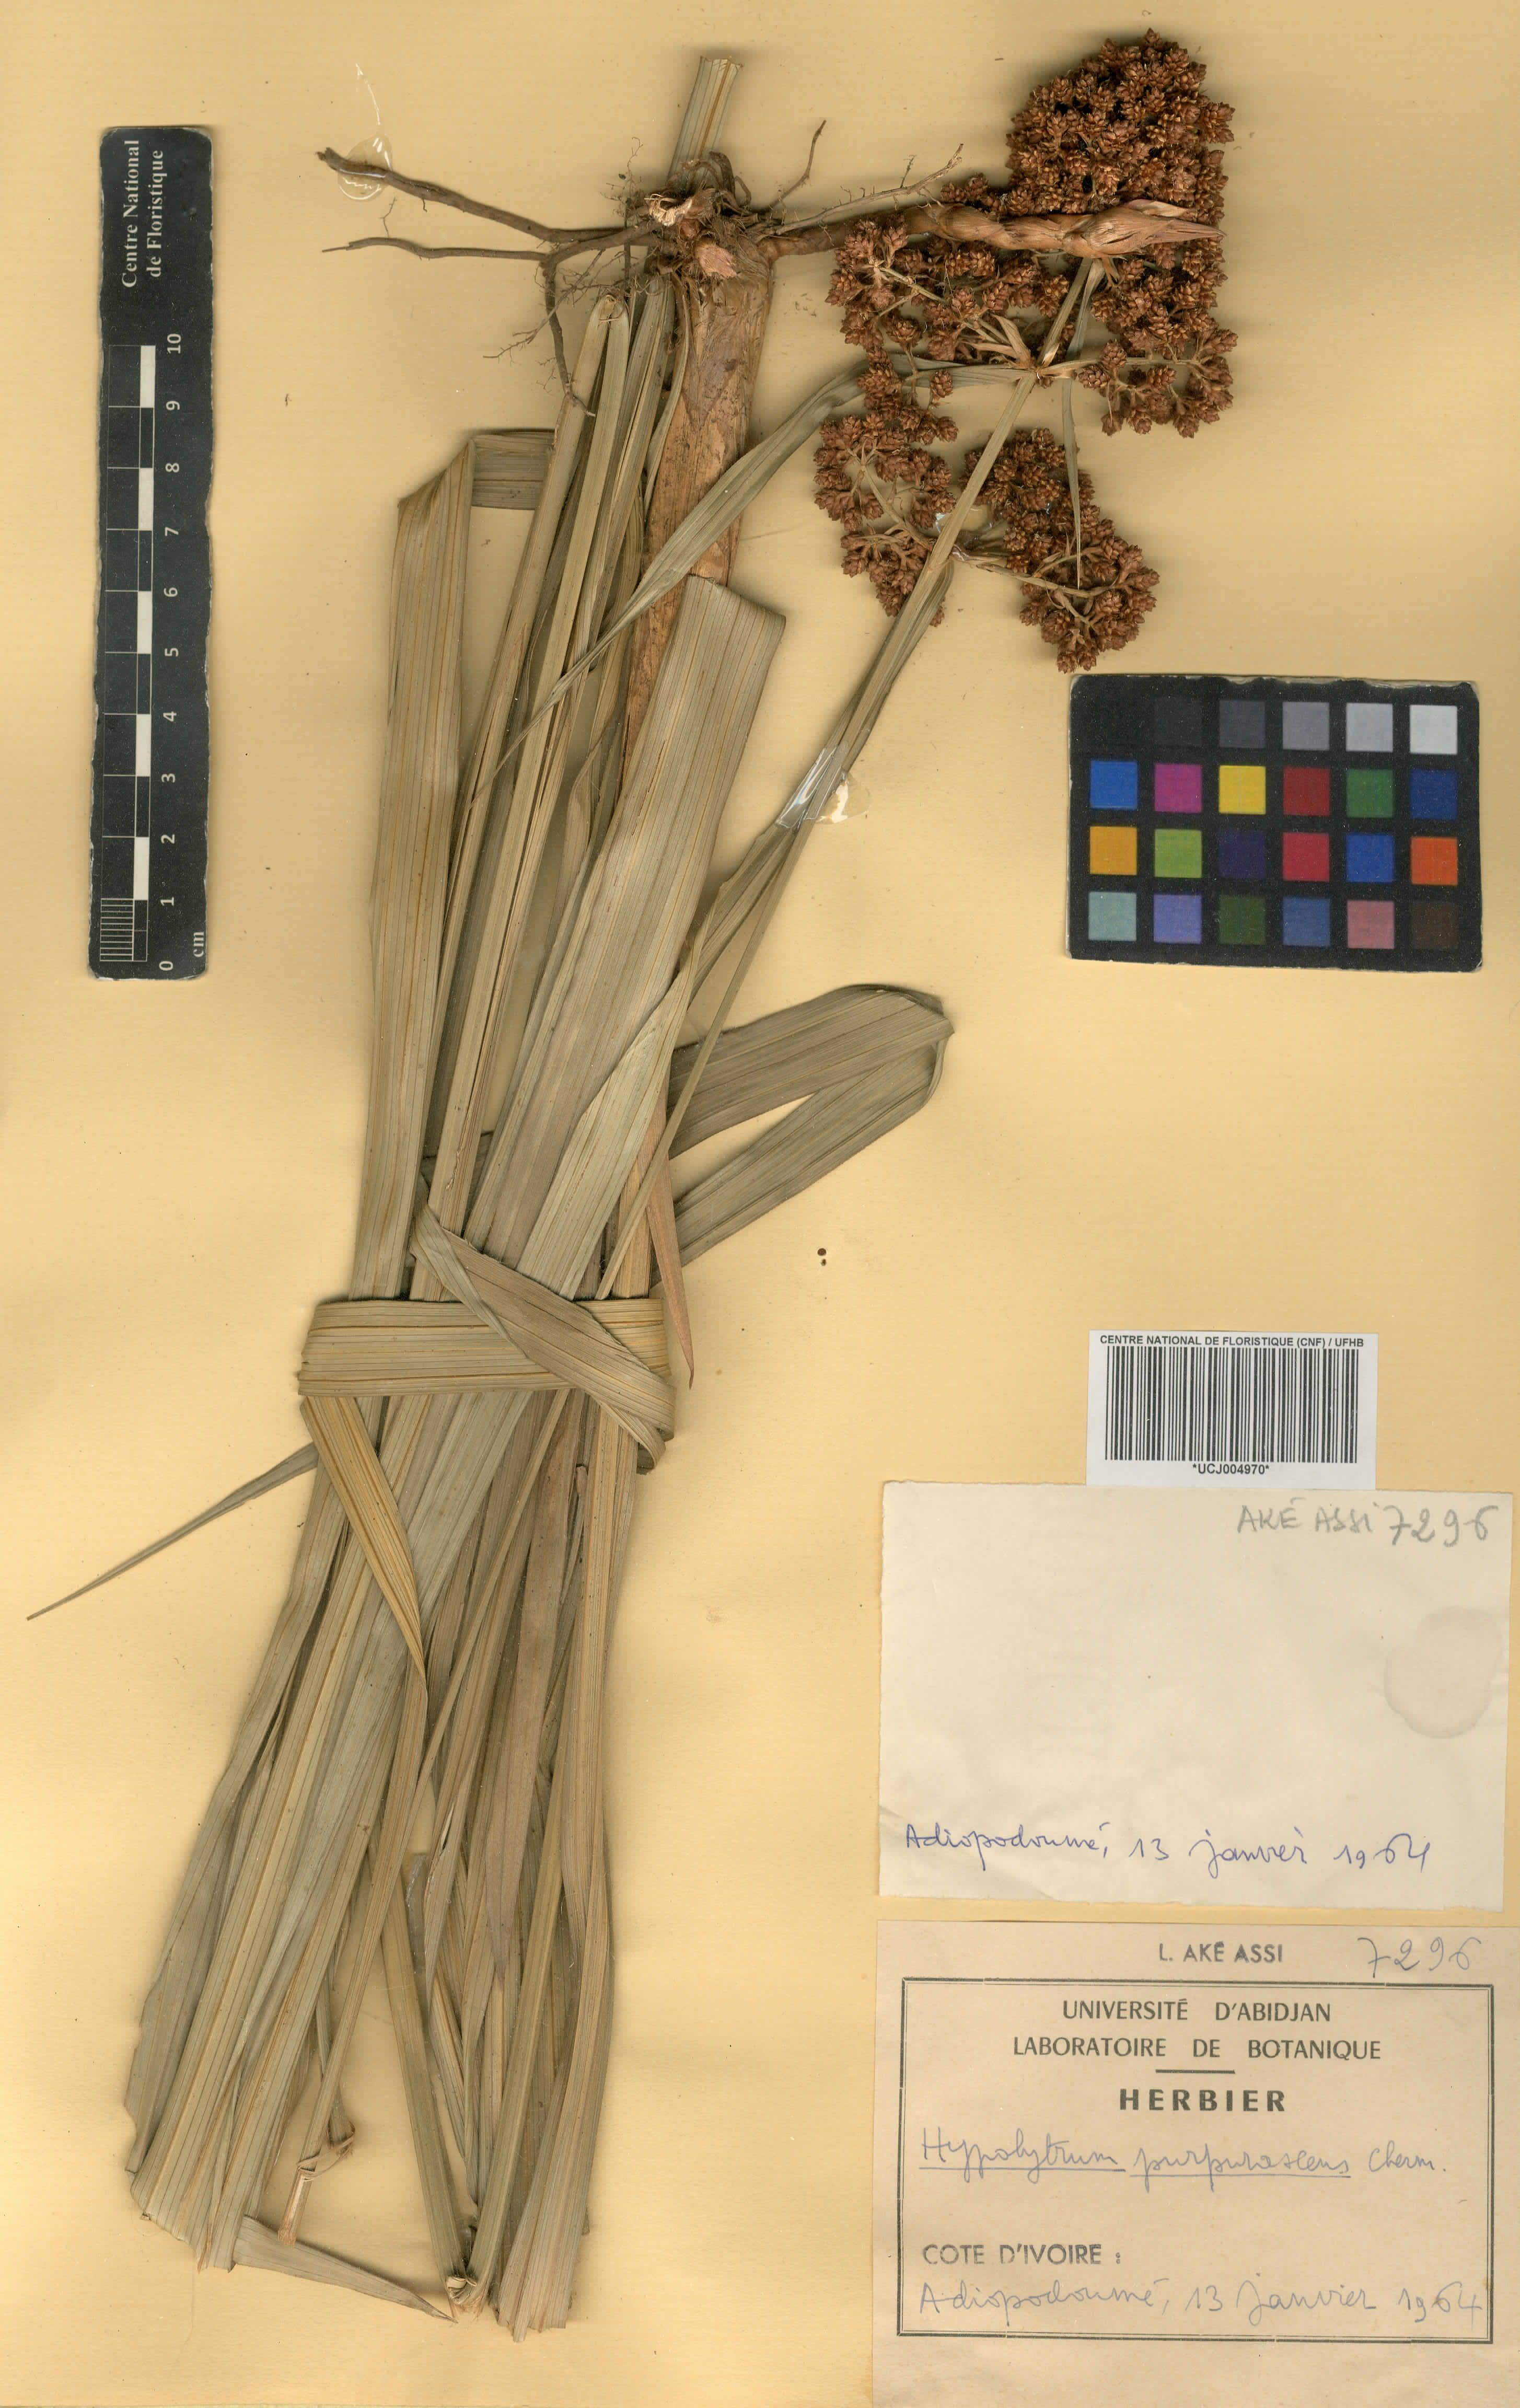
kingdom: Plantae
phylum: Tracheophyta
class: Liliopsida
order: Poales
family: Cyperaceae
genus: Hypolytrum
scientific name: Hypolytrum purpurascens
